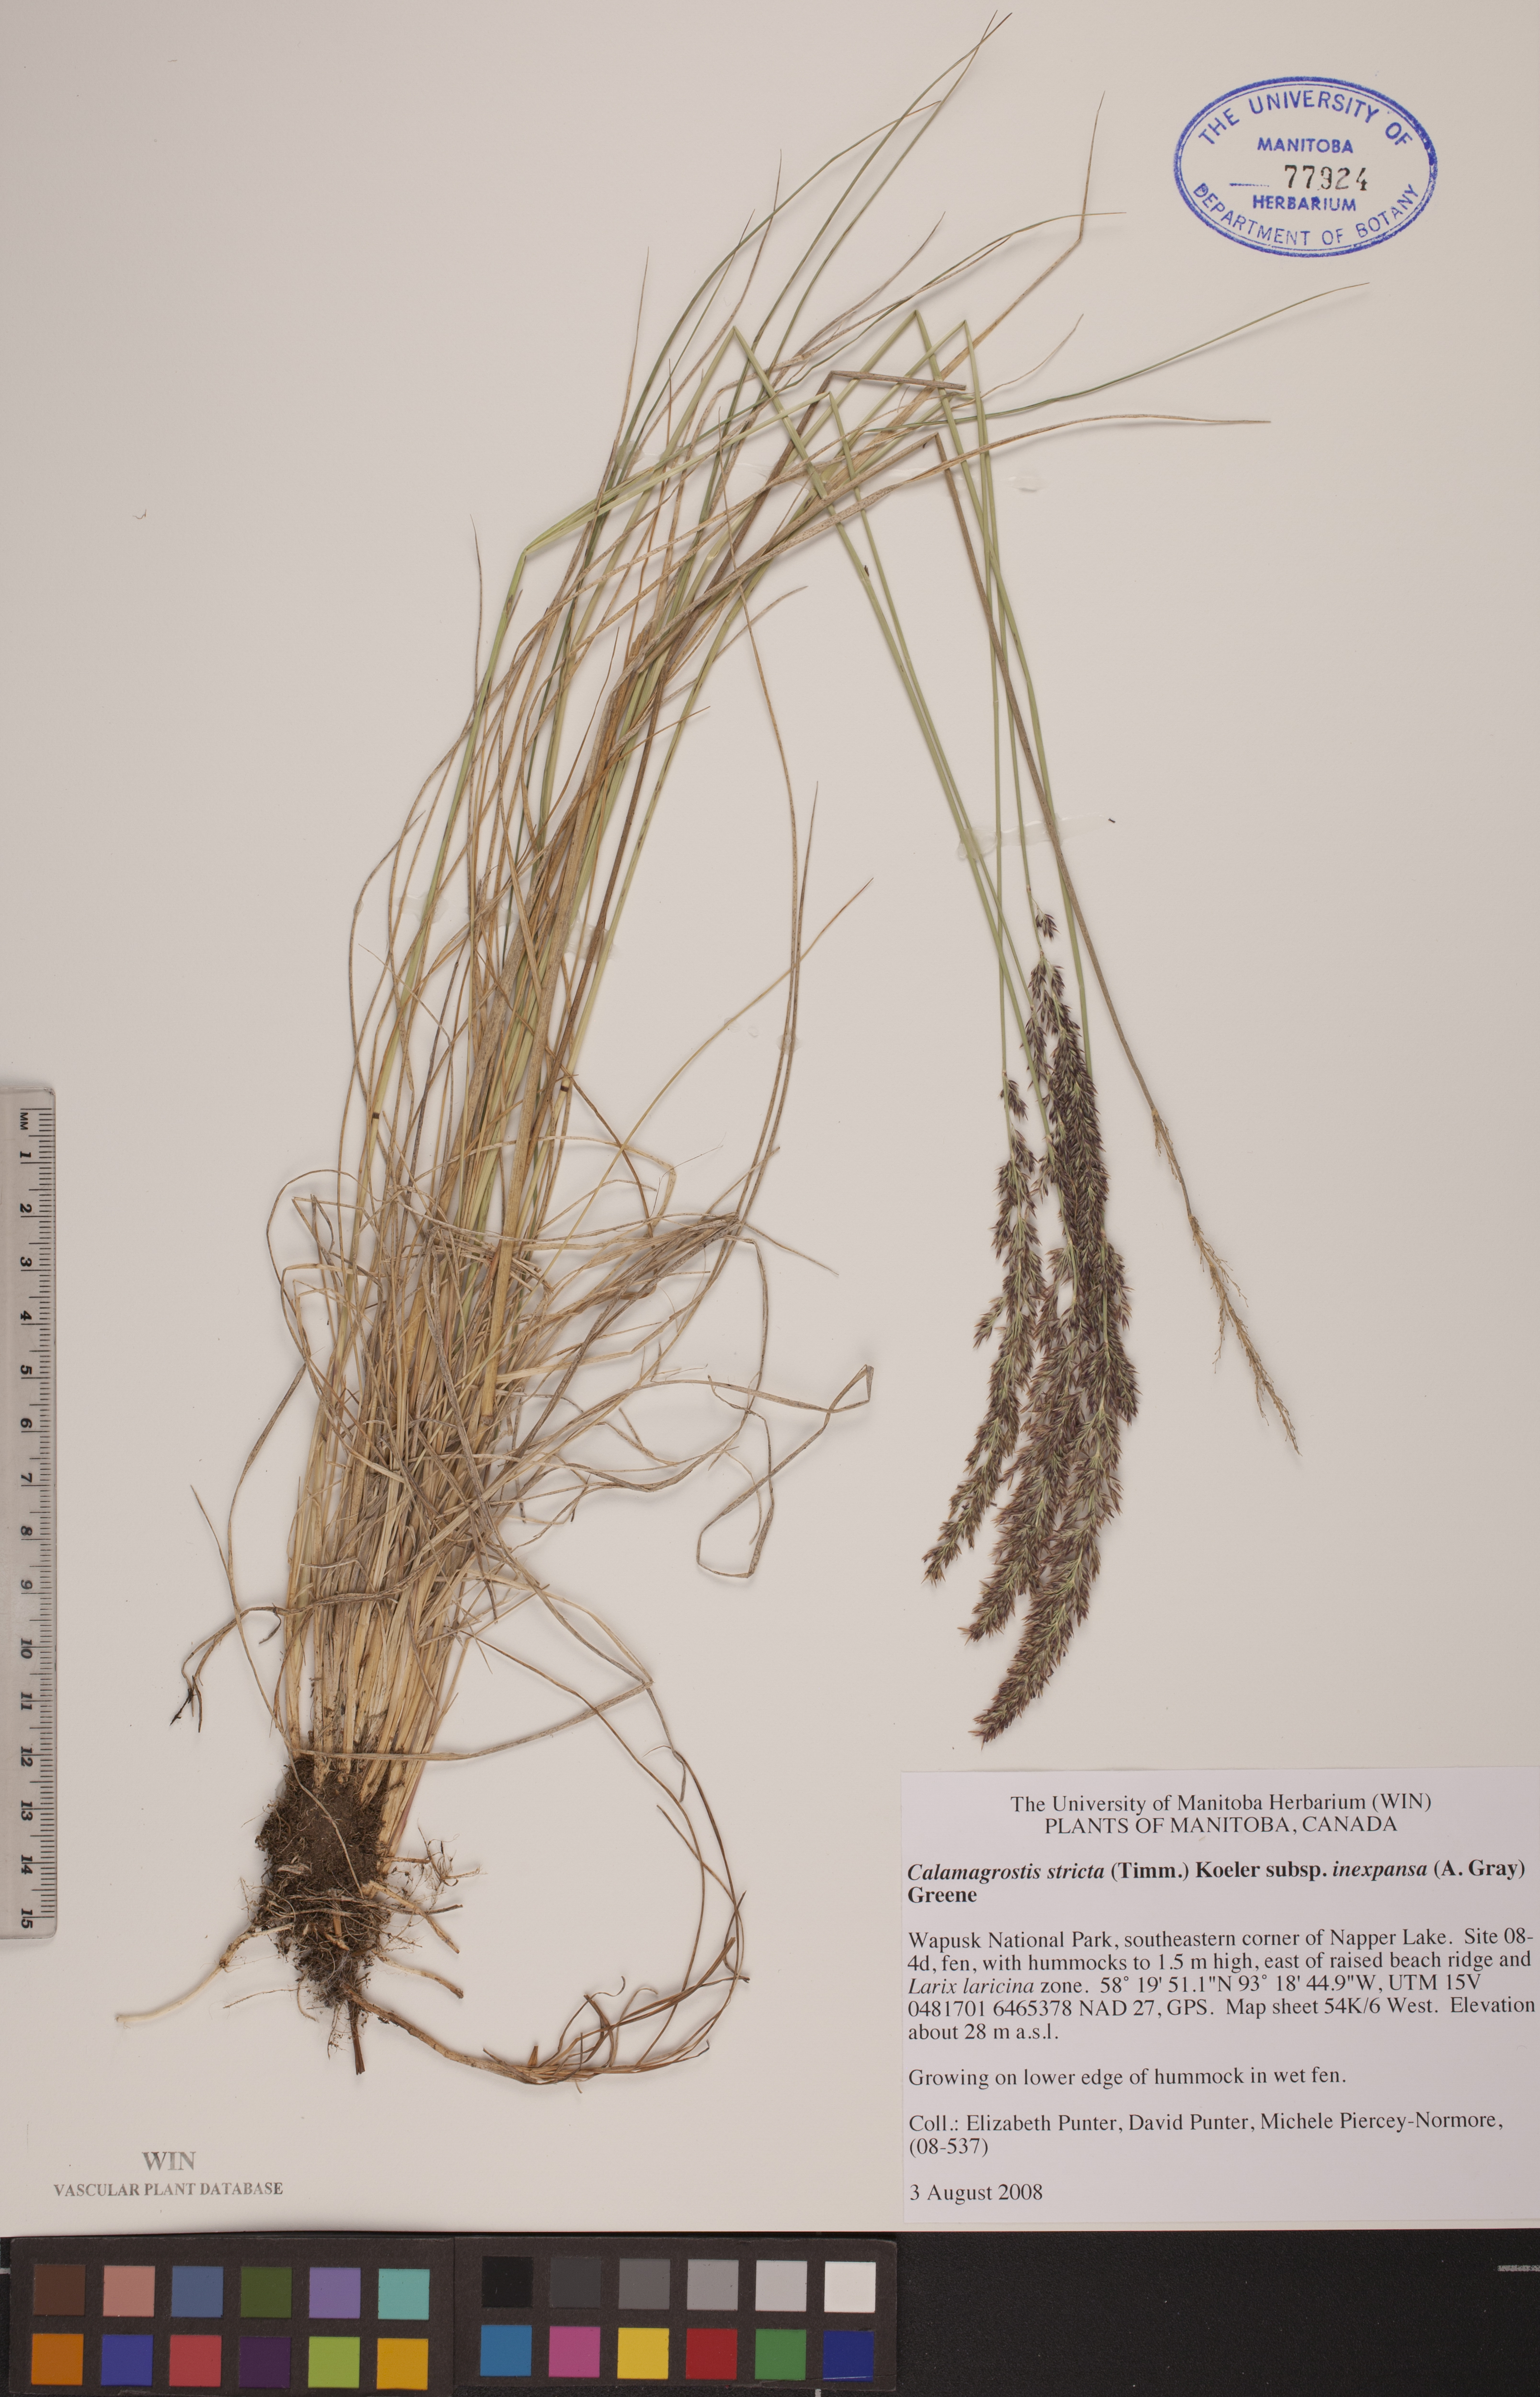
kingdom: Plantae
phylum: Tracheophyta
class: Liliopsida
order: Poales
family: Poaceae
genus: Calamagrostis
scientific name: Calamagrostis inexpansa
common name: Northern reedgrass
